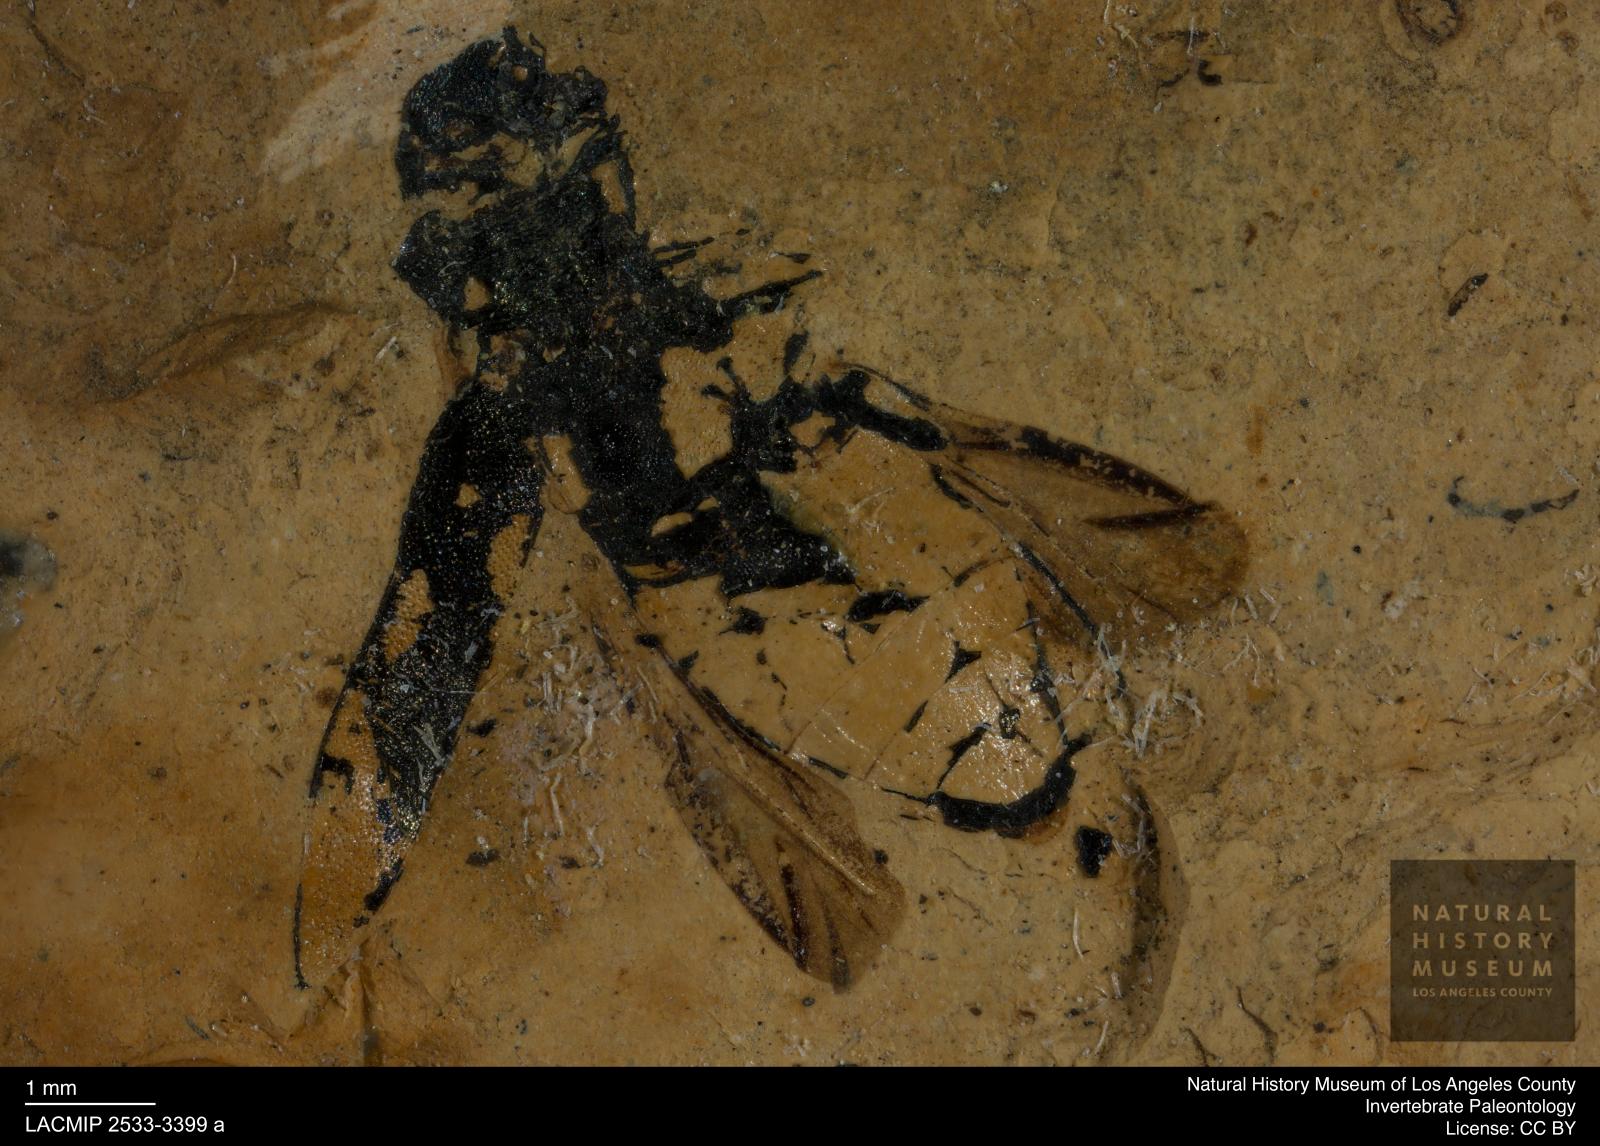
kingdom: Animalia
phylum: Arthropoda
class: Insecta
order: Coleoptera
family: Elateridae
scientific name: Elateridae
